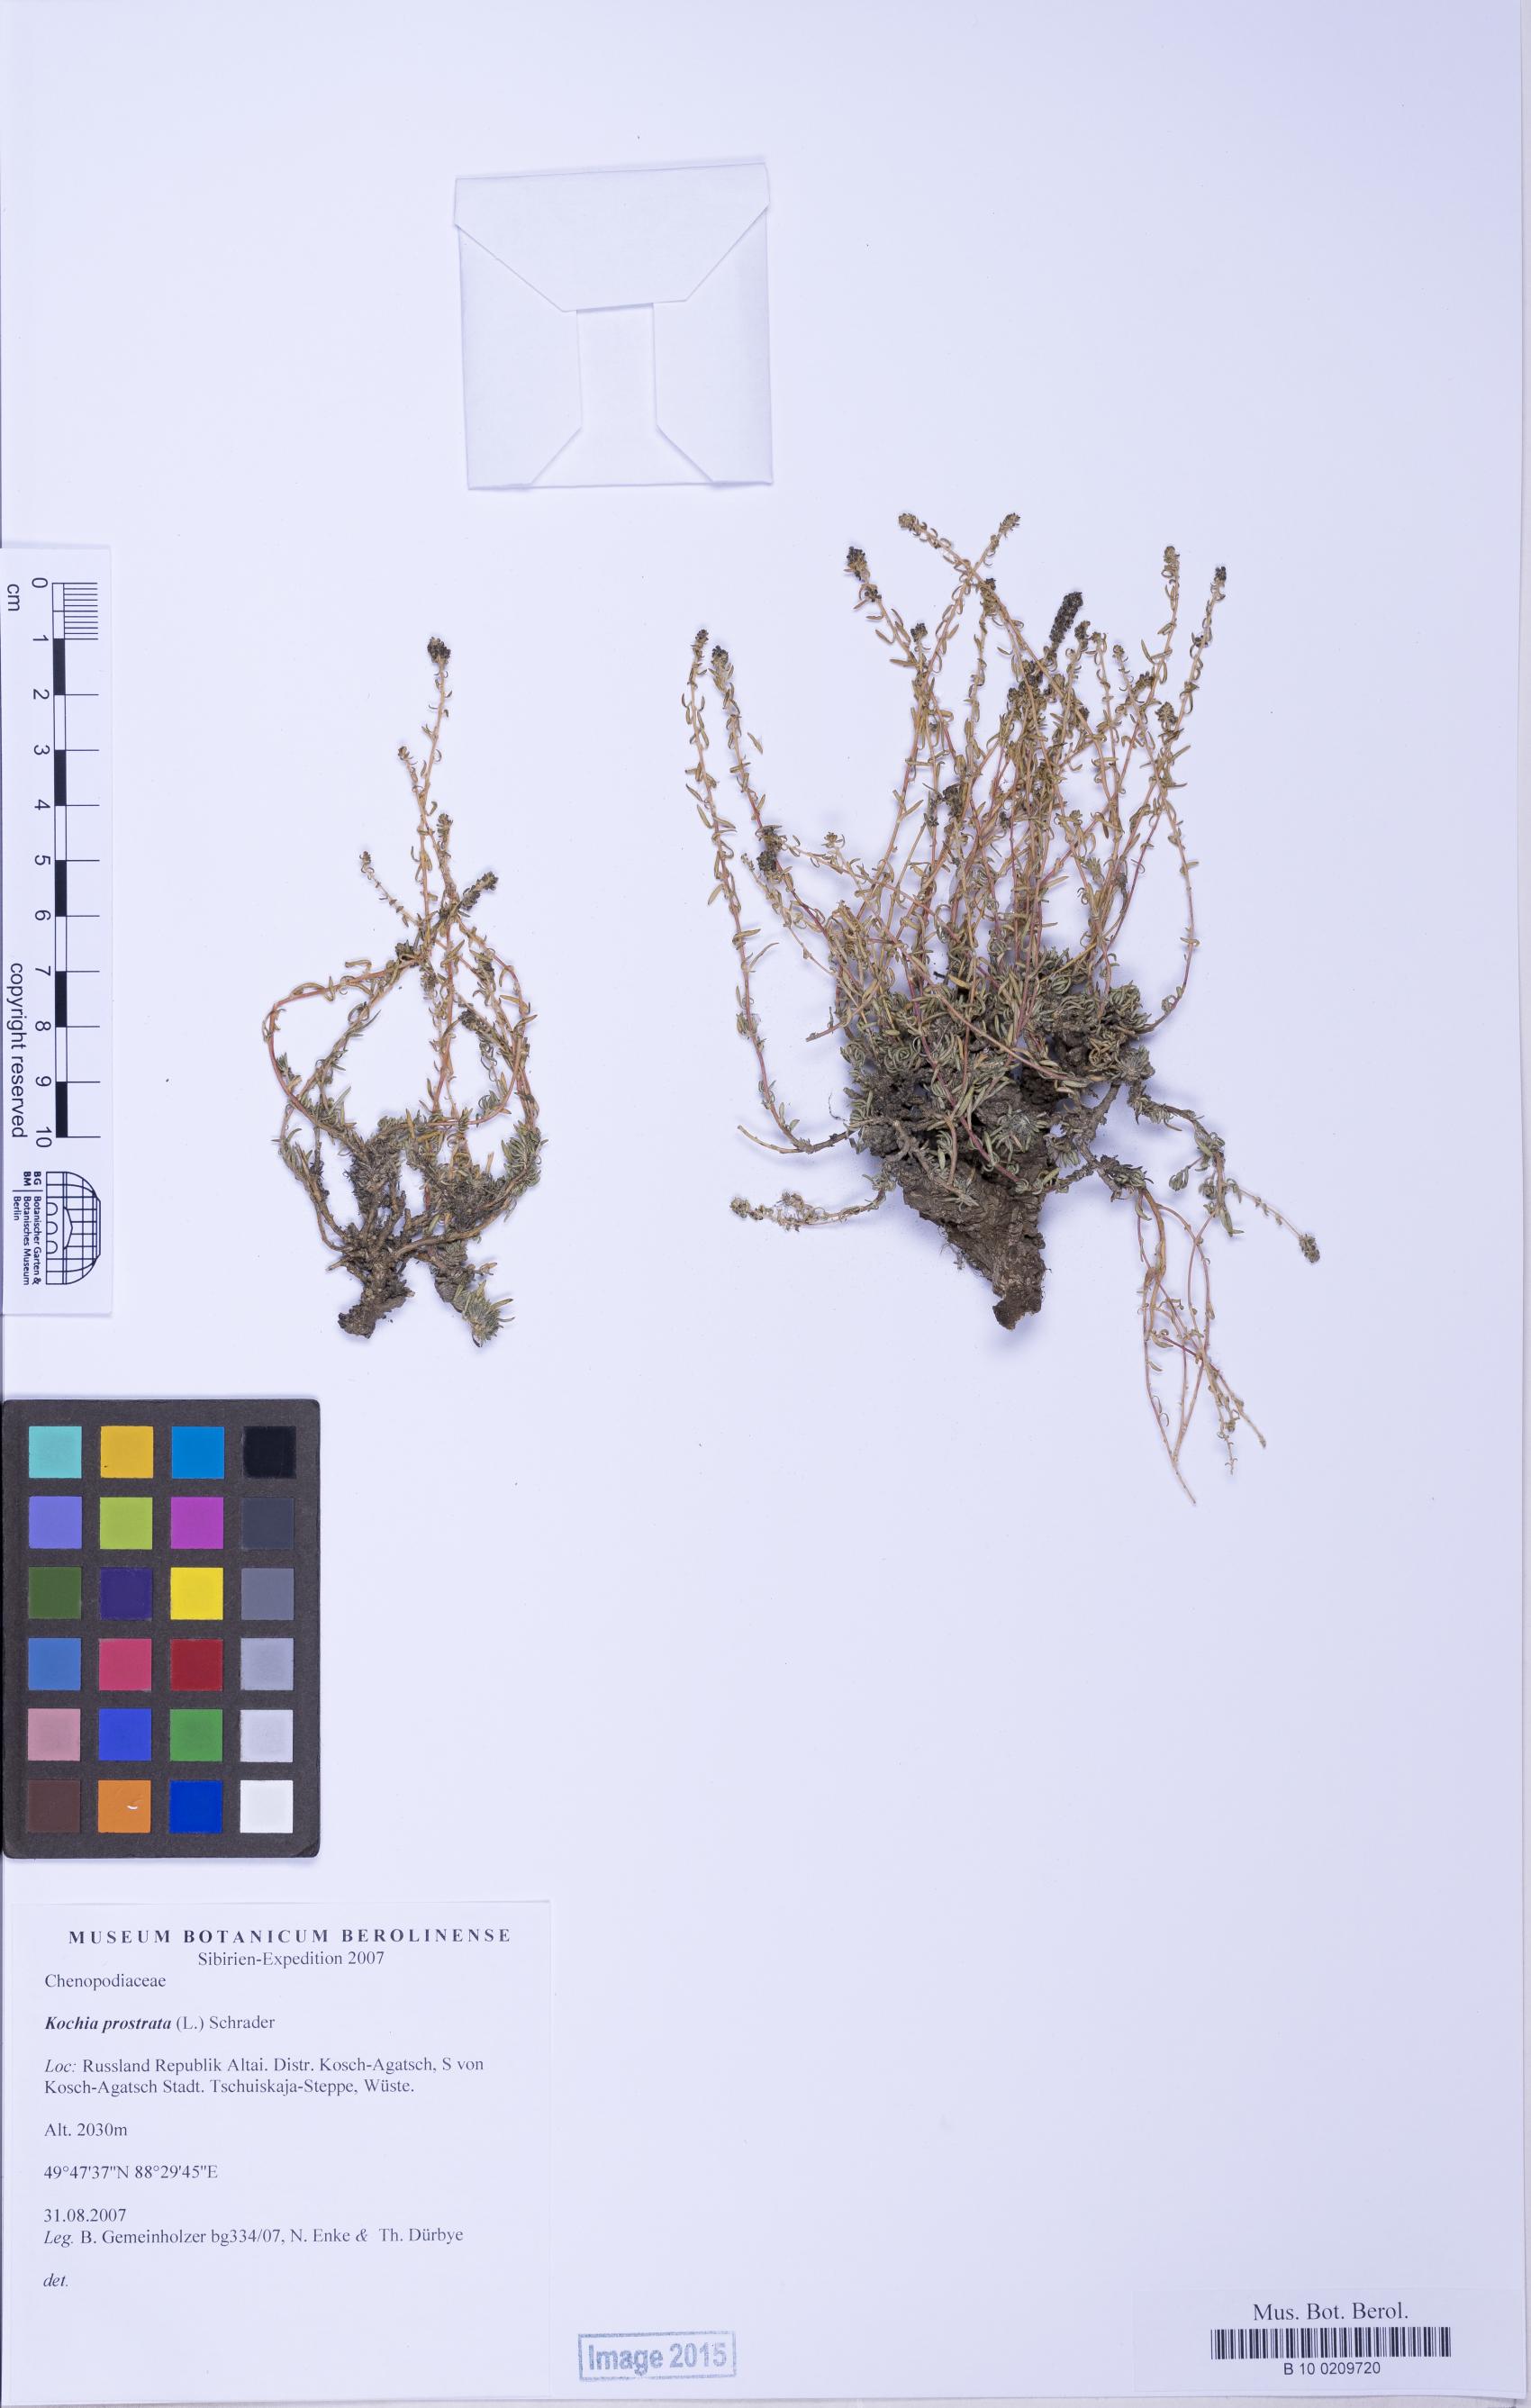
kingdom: Plantae
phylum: Tracheophyta
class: Magnoliopsida
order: Caryophyllales
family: Amaranthaceae
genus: Bassia
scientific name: Bassia prostrata
